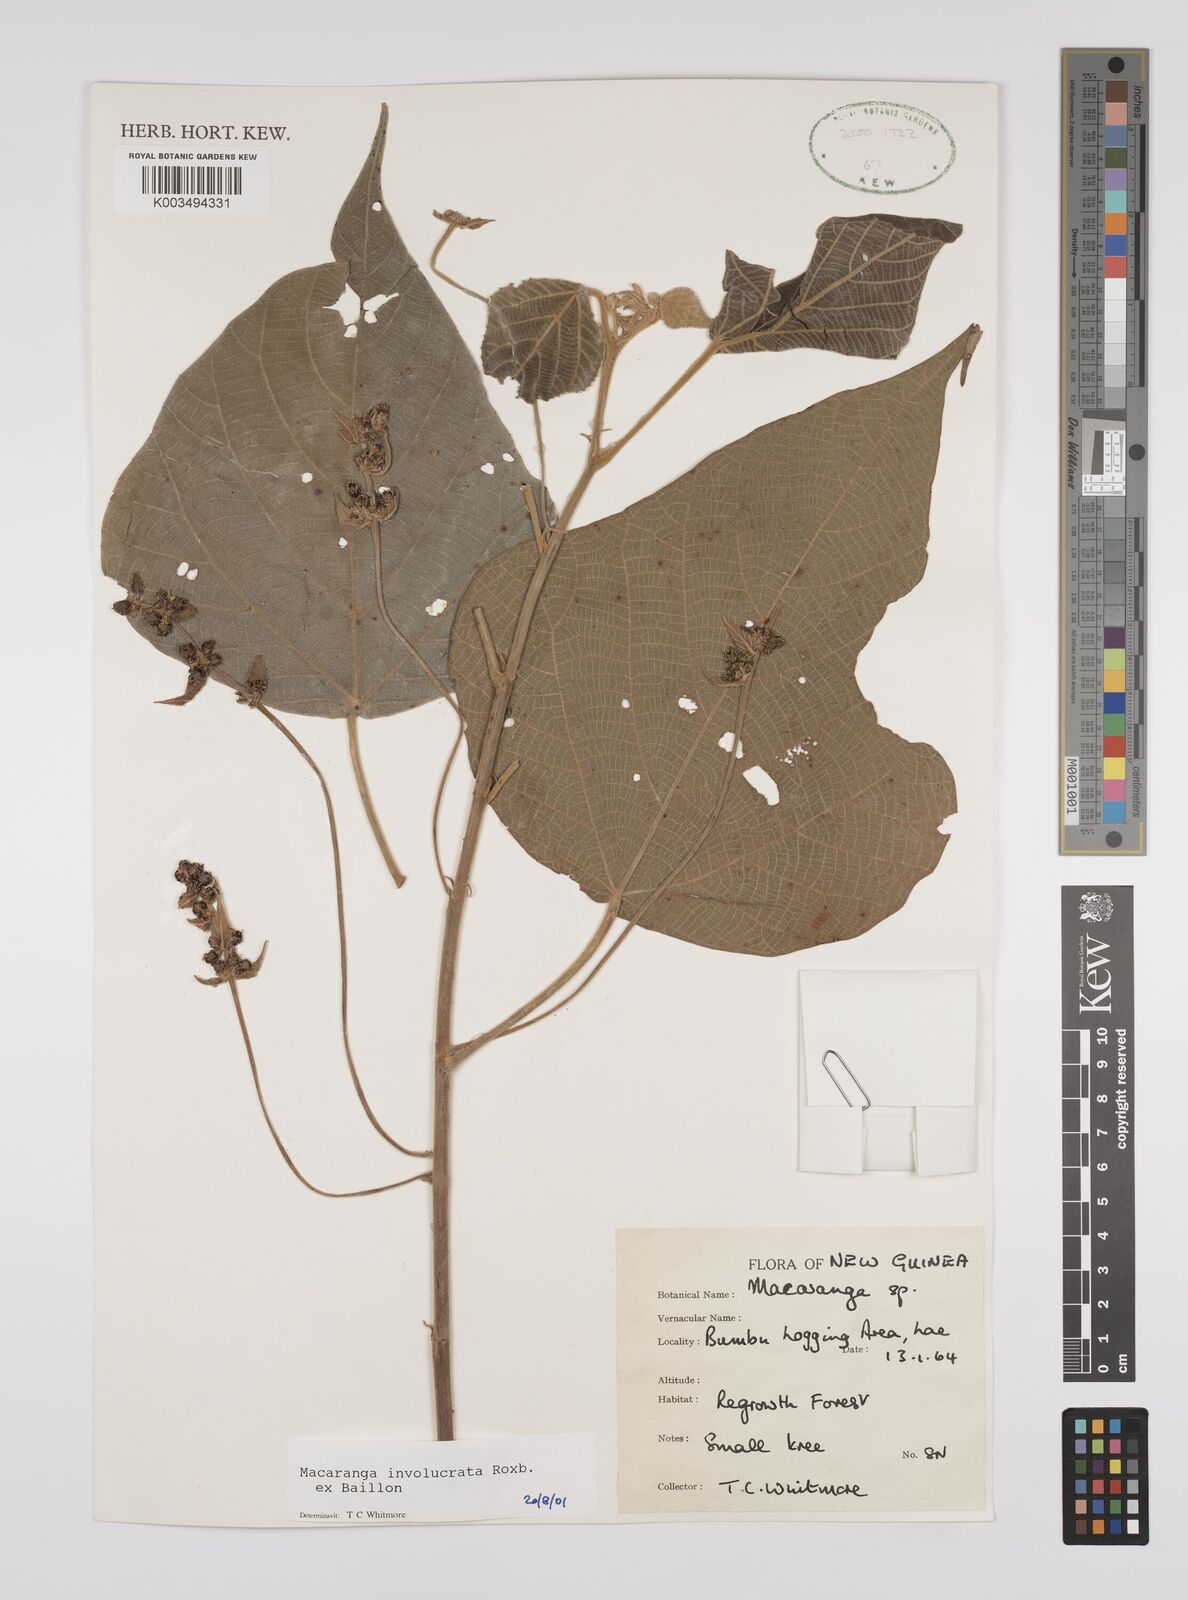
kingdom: Plantae
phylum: Tracheophyta
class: Magnoliopsida
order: Malpighiales
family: Euphorbiaceae
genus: Macaranga
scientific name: Macaranga involucrata
